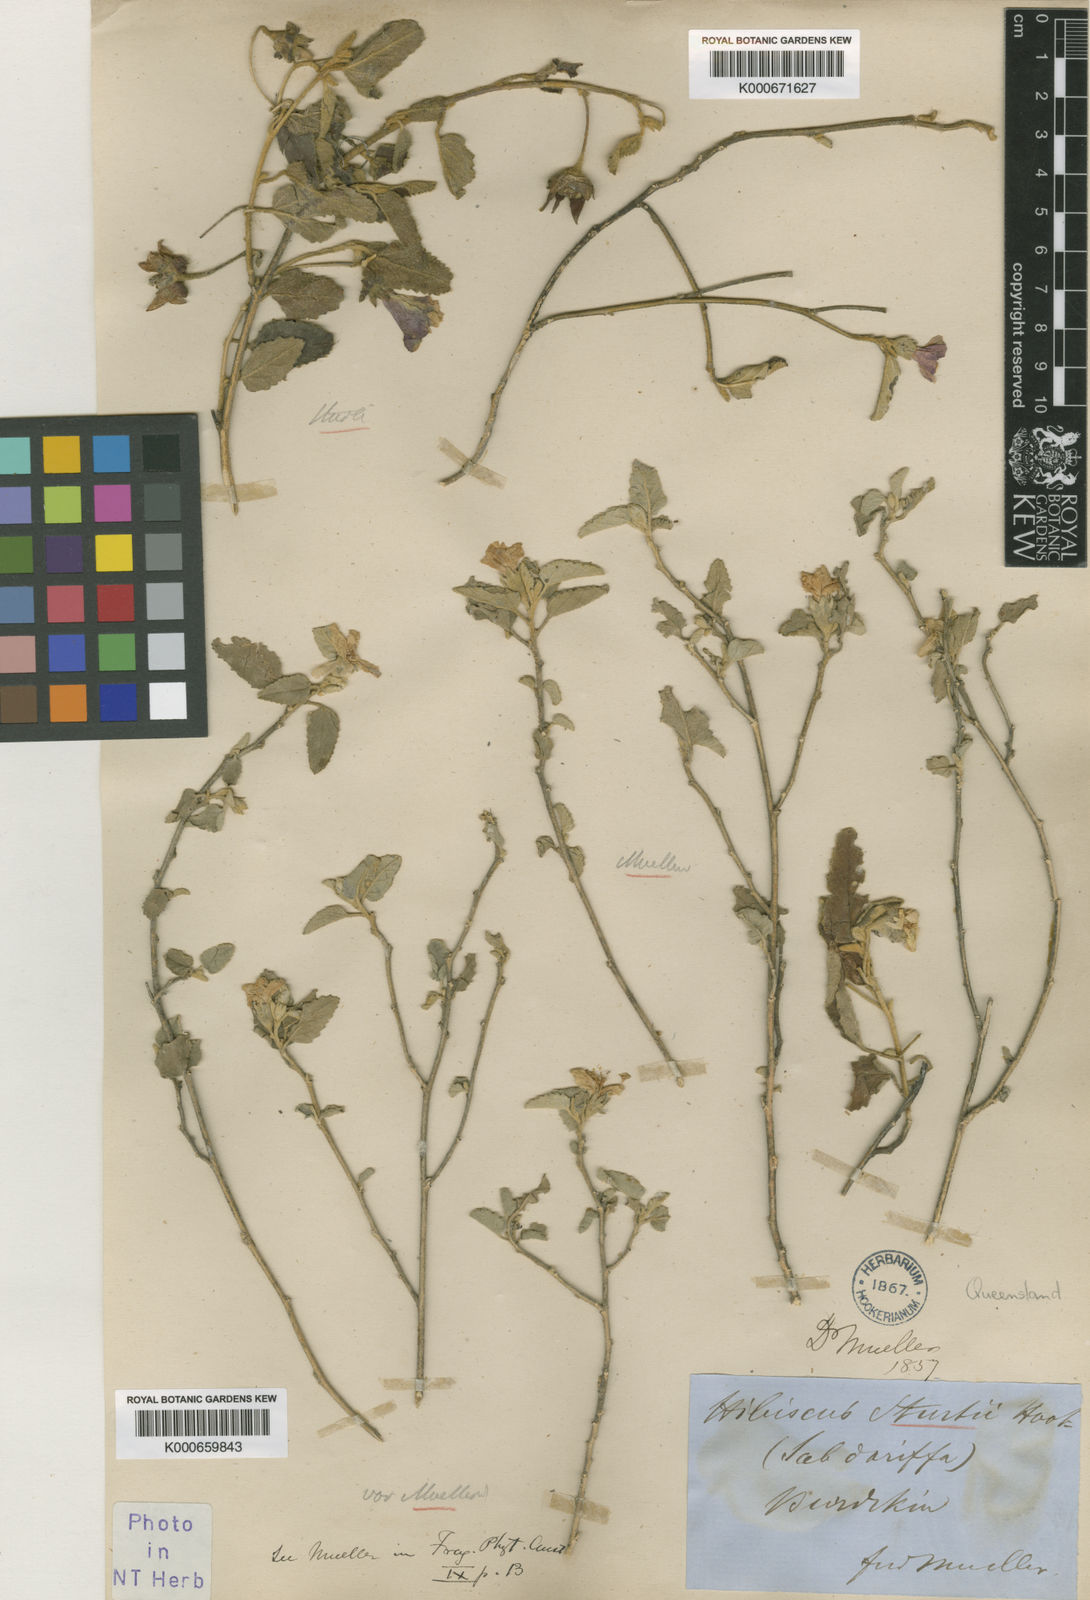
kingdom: Plantae
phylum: Tracheophyta
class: Magnoliopsida
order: Malvales
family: Malvaceae
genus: Hibiscus
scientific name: Hibiscus sturtii
